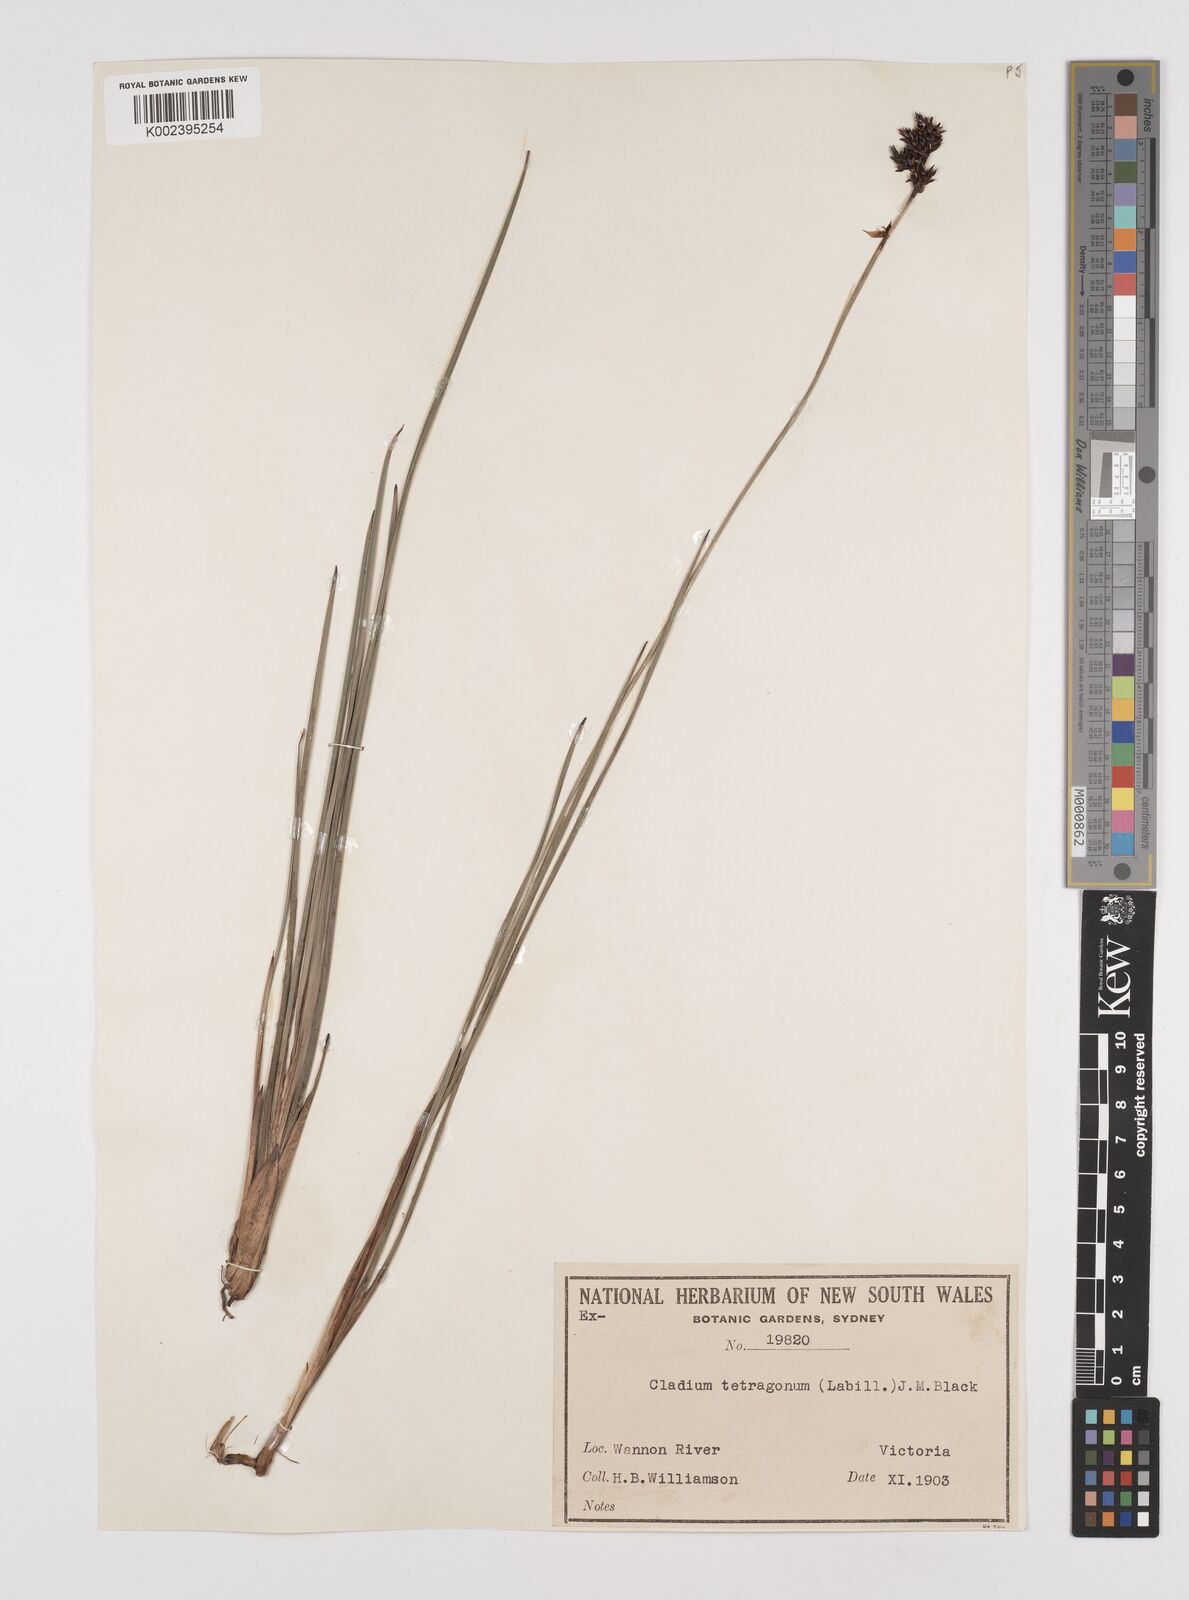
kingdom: Plantae
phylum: Tracheophyta
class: Liliopsida
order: Poales
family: Cyperaceae
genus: Machaerina
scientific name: Machaerina tetragona
